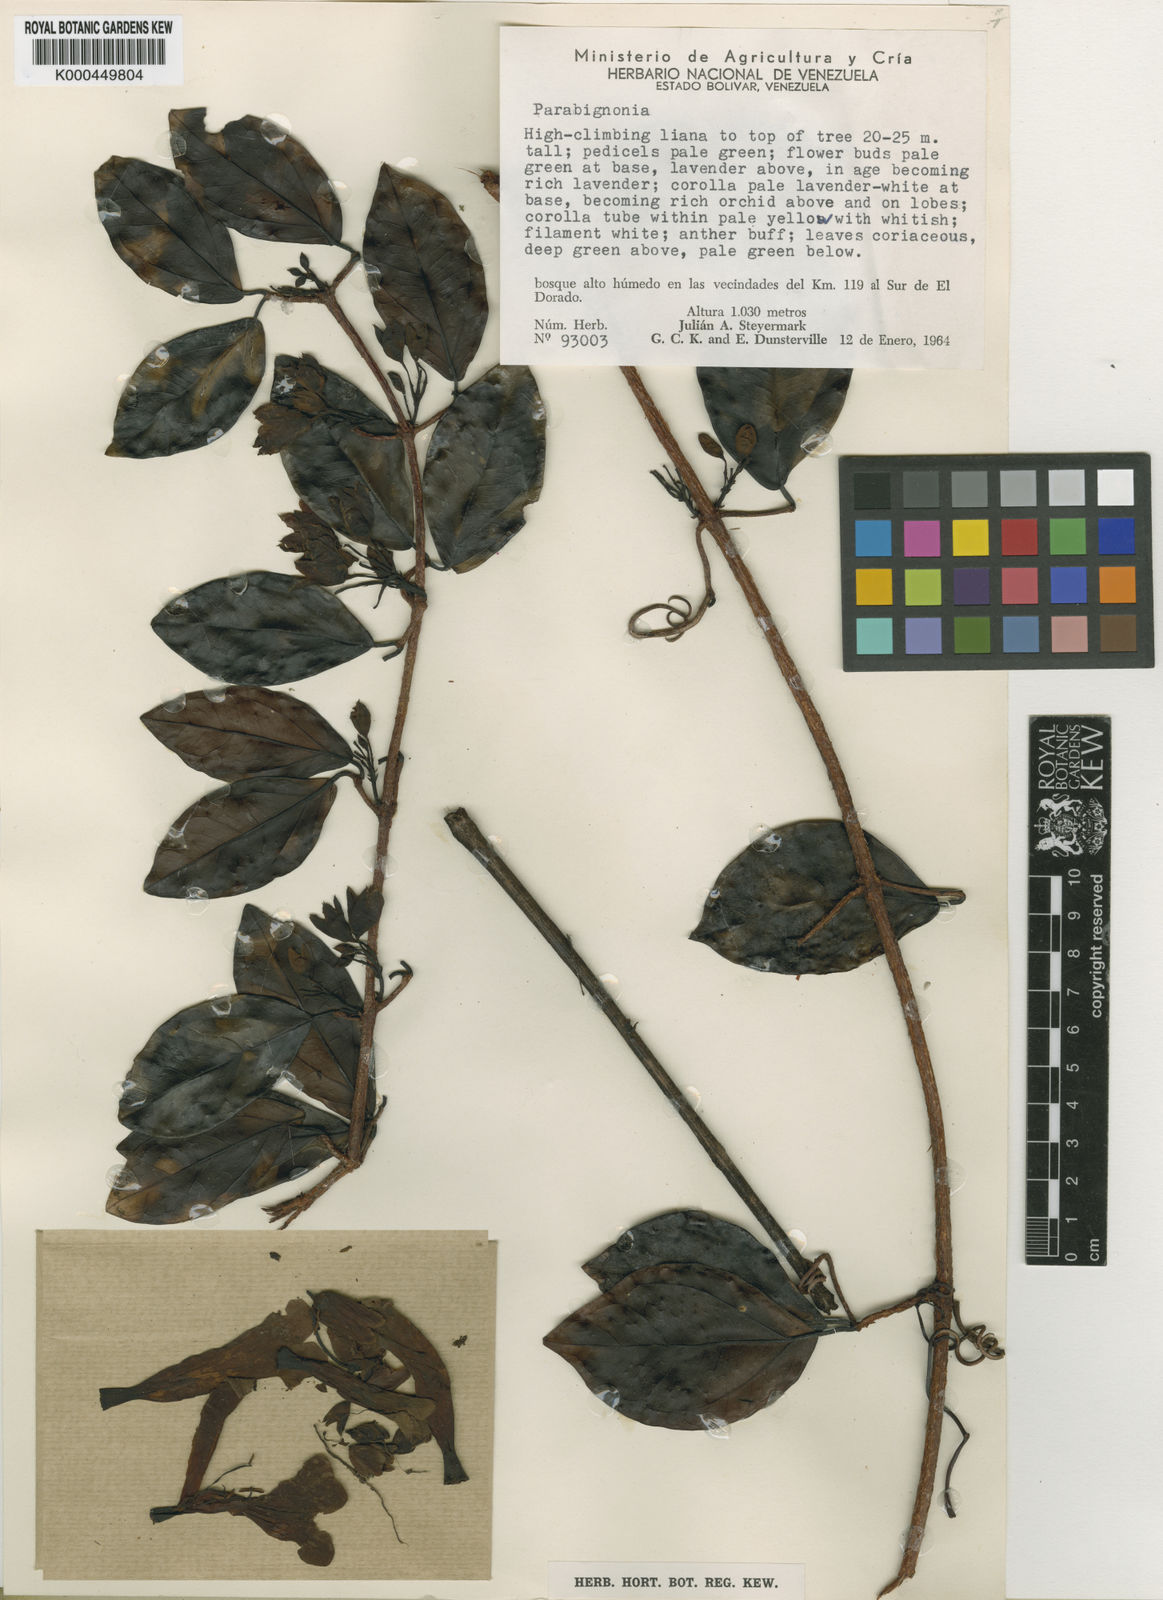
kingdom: Plantae
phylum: Tracheophyta
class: Magnoliopsida
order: Lamiales
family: Bignoniaceae
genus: Dolichandra
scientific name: Dolichandra steyermarkii
